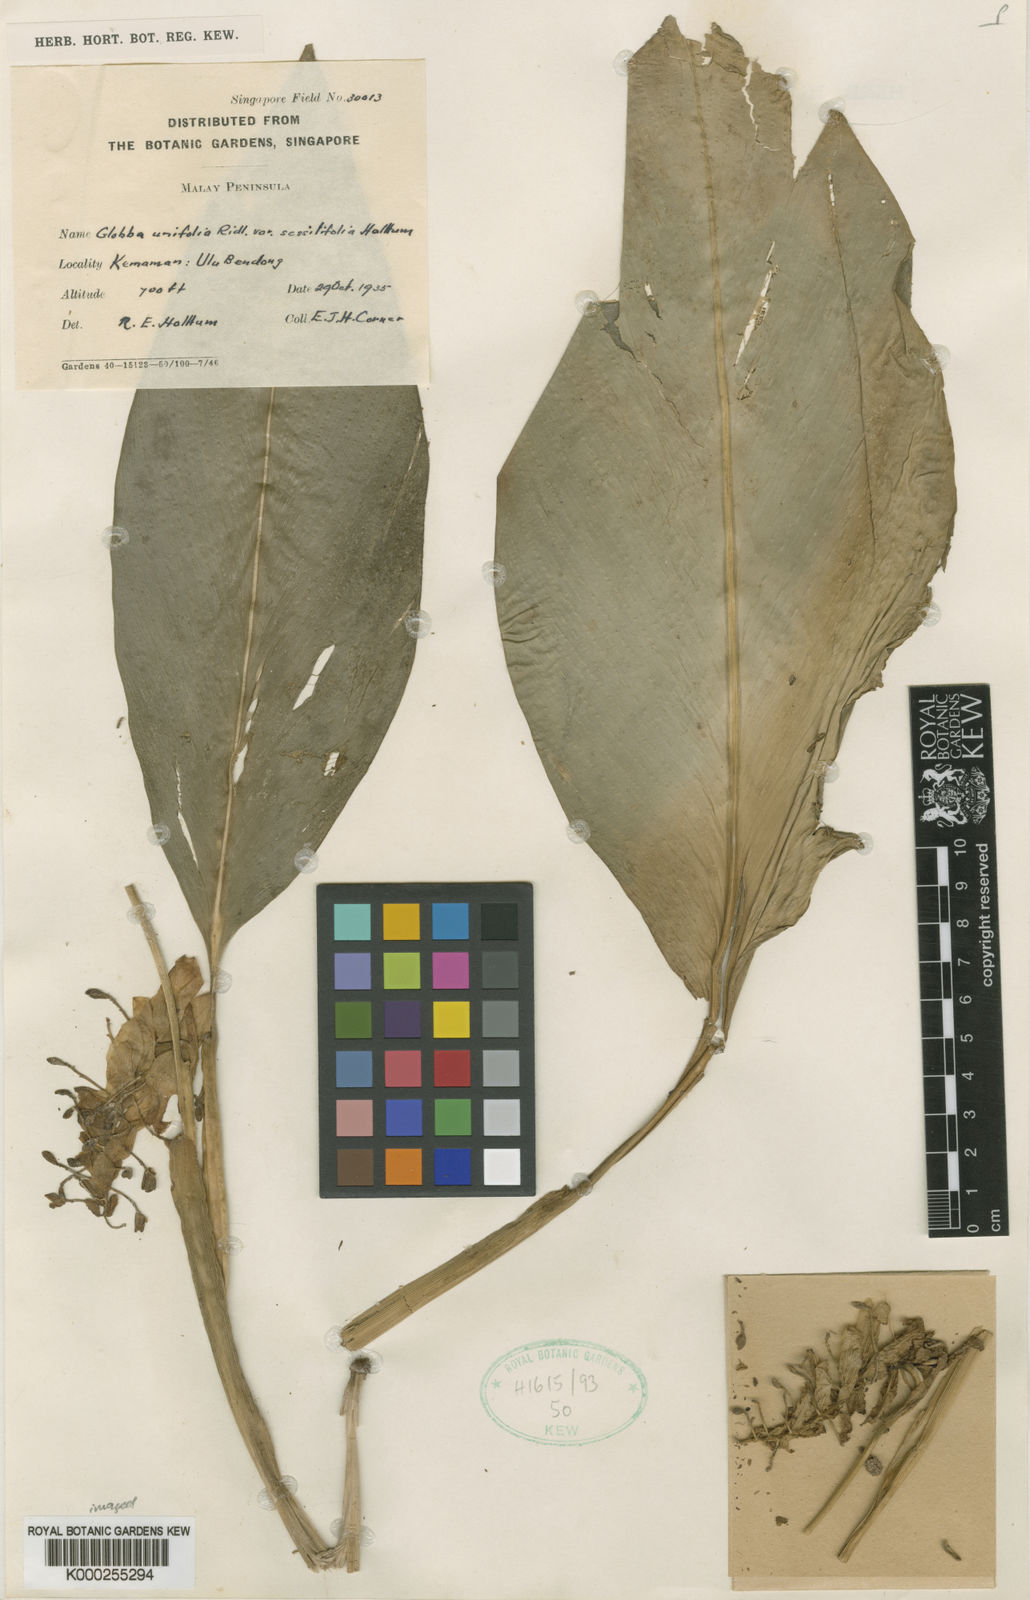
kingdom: Plantae
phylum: Tracheophyta
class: Liliopsida
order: Zingiberales
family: Zingiberaceae
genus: Globba
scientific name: Globba unifolia
